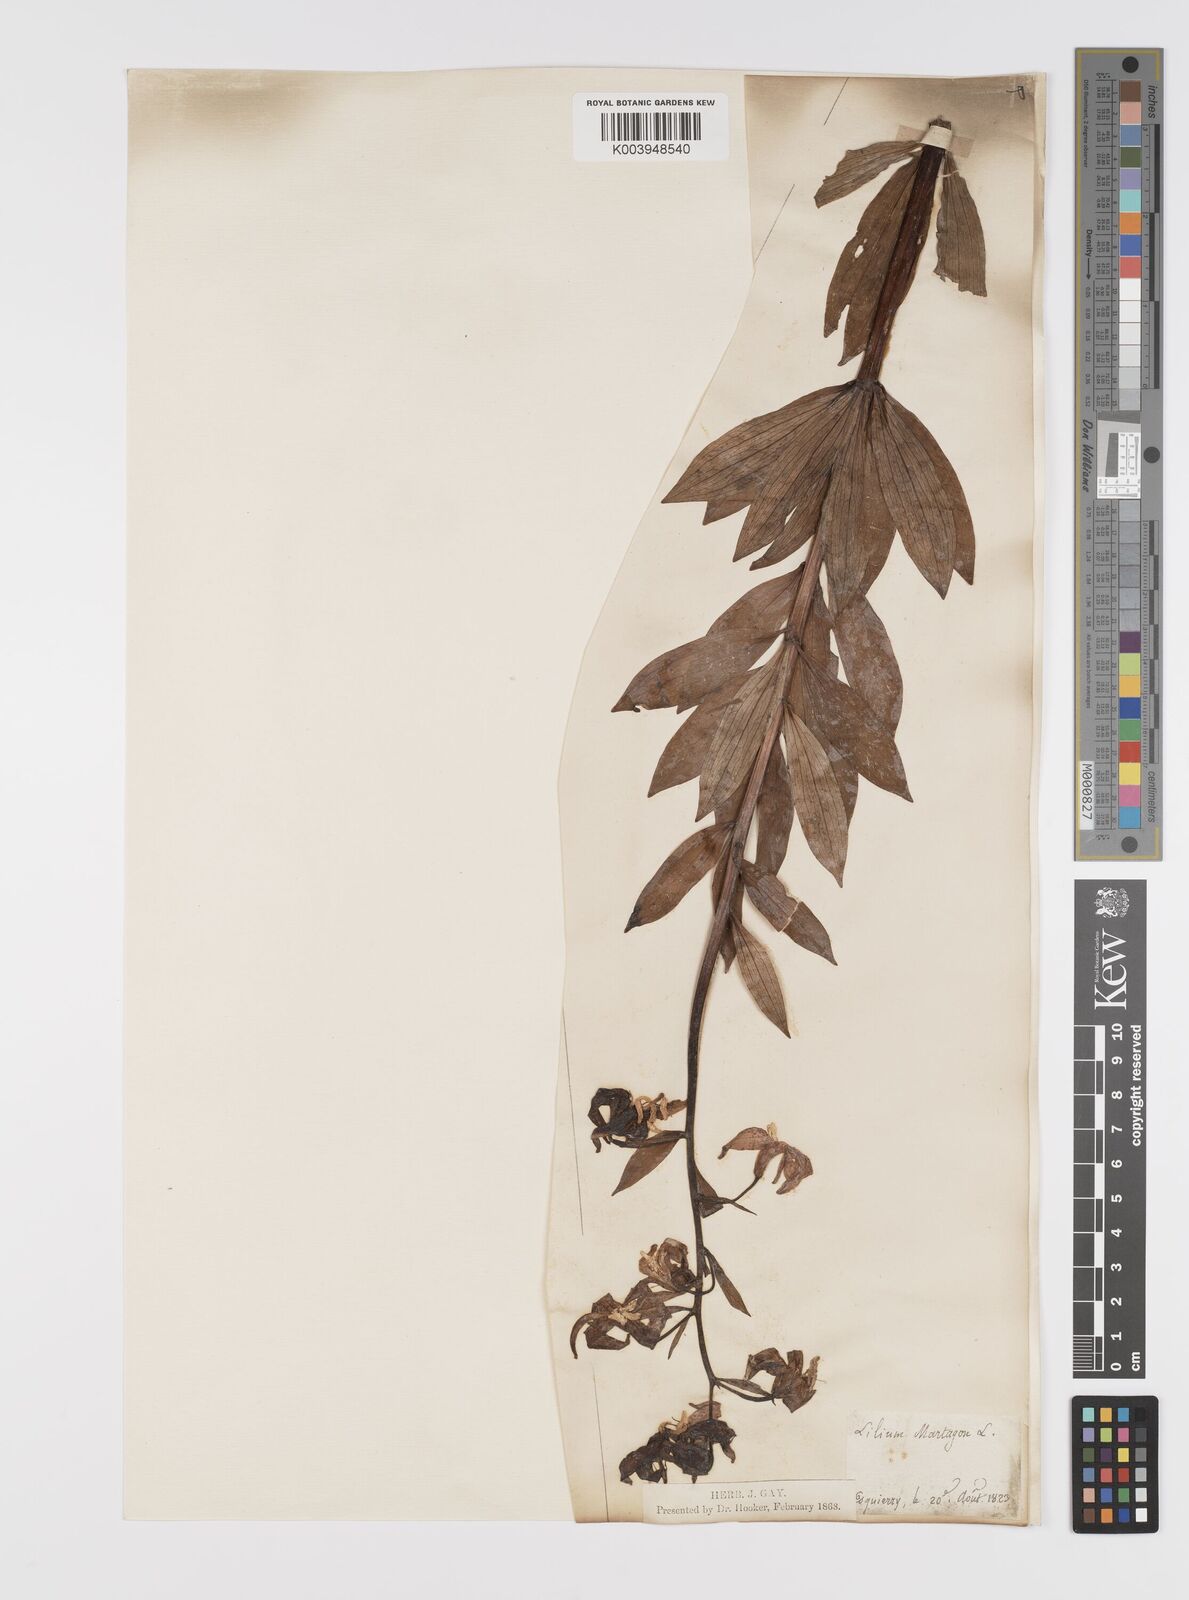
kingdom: Plantae
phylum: Tracheophyta
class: Liliopsida
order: Liliales
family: Liliaceae
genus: Lilium
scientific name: Lilium martagon
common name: Martagon lily
